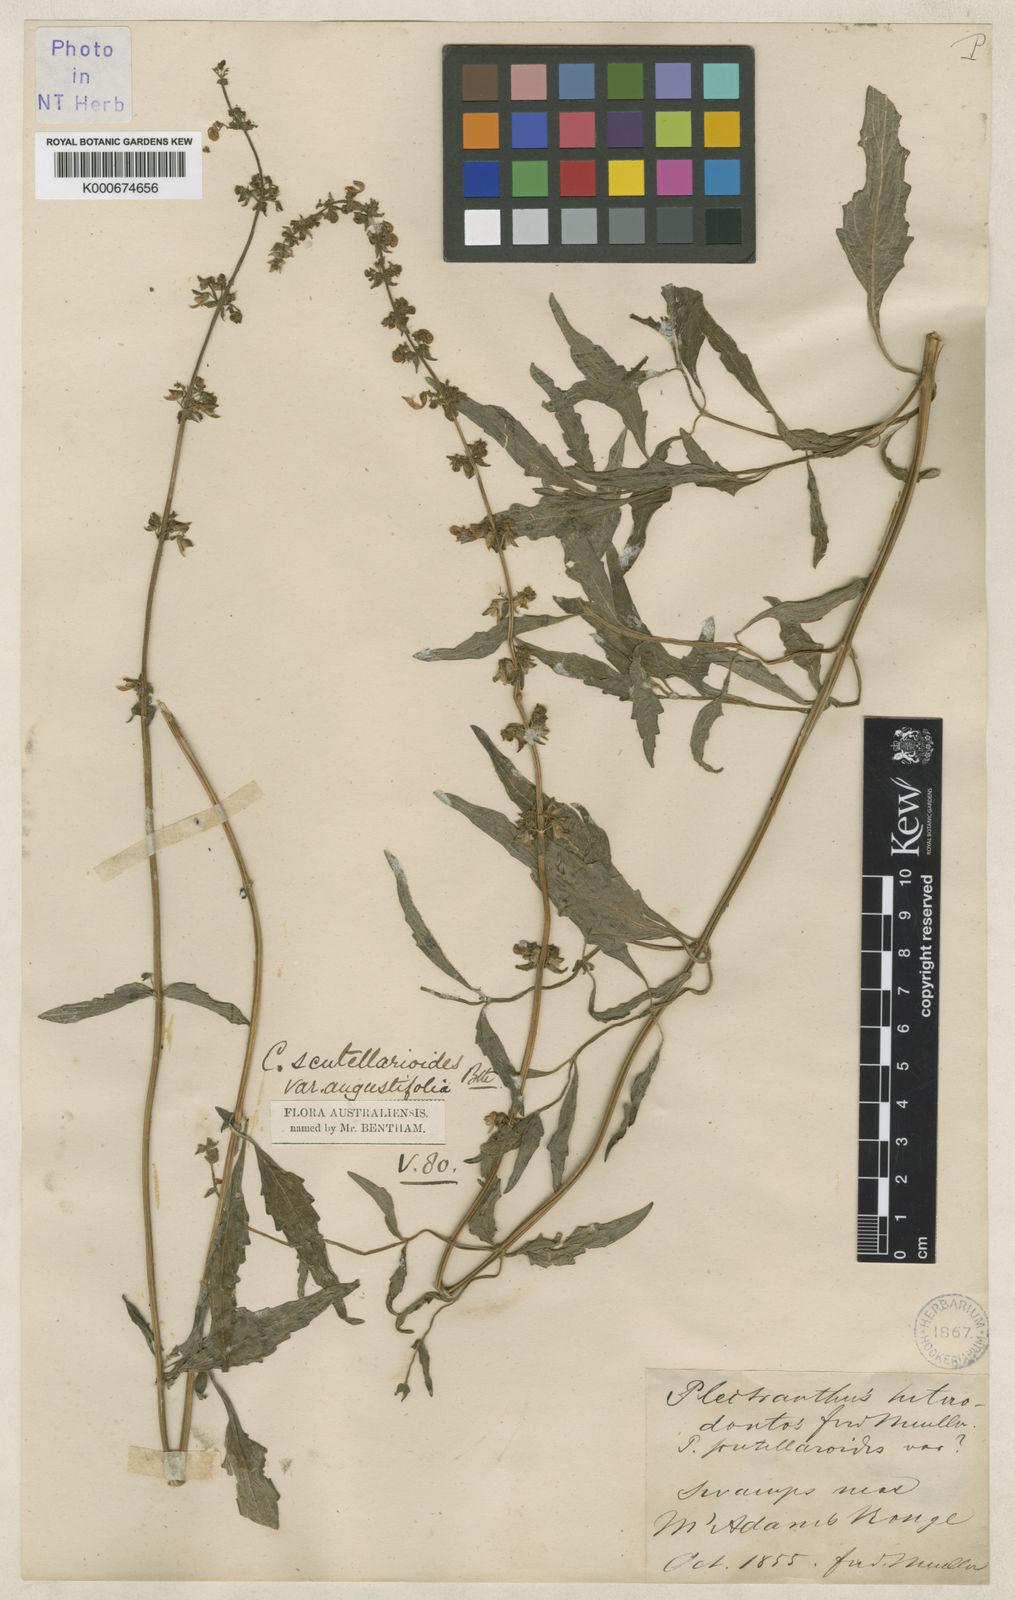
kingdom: Plantae
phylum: Tracheophyta
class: Magnoliopsida
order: Lamiales
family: Lamiaceae
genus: Coleus
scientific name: Coleus scutellarioides
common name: Coleus
